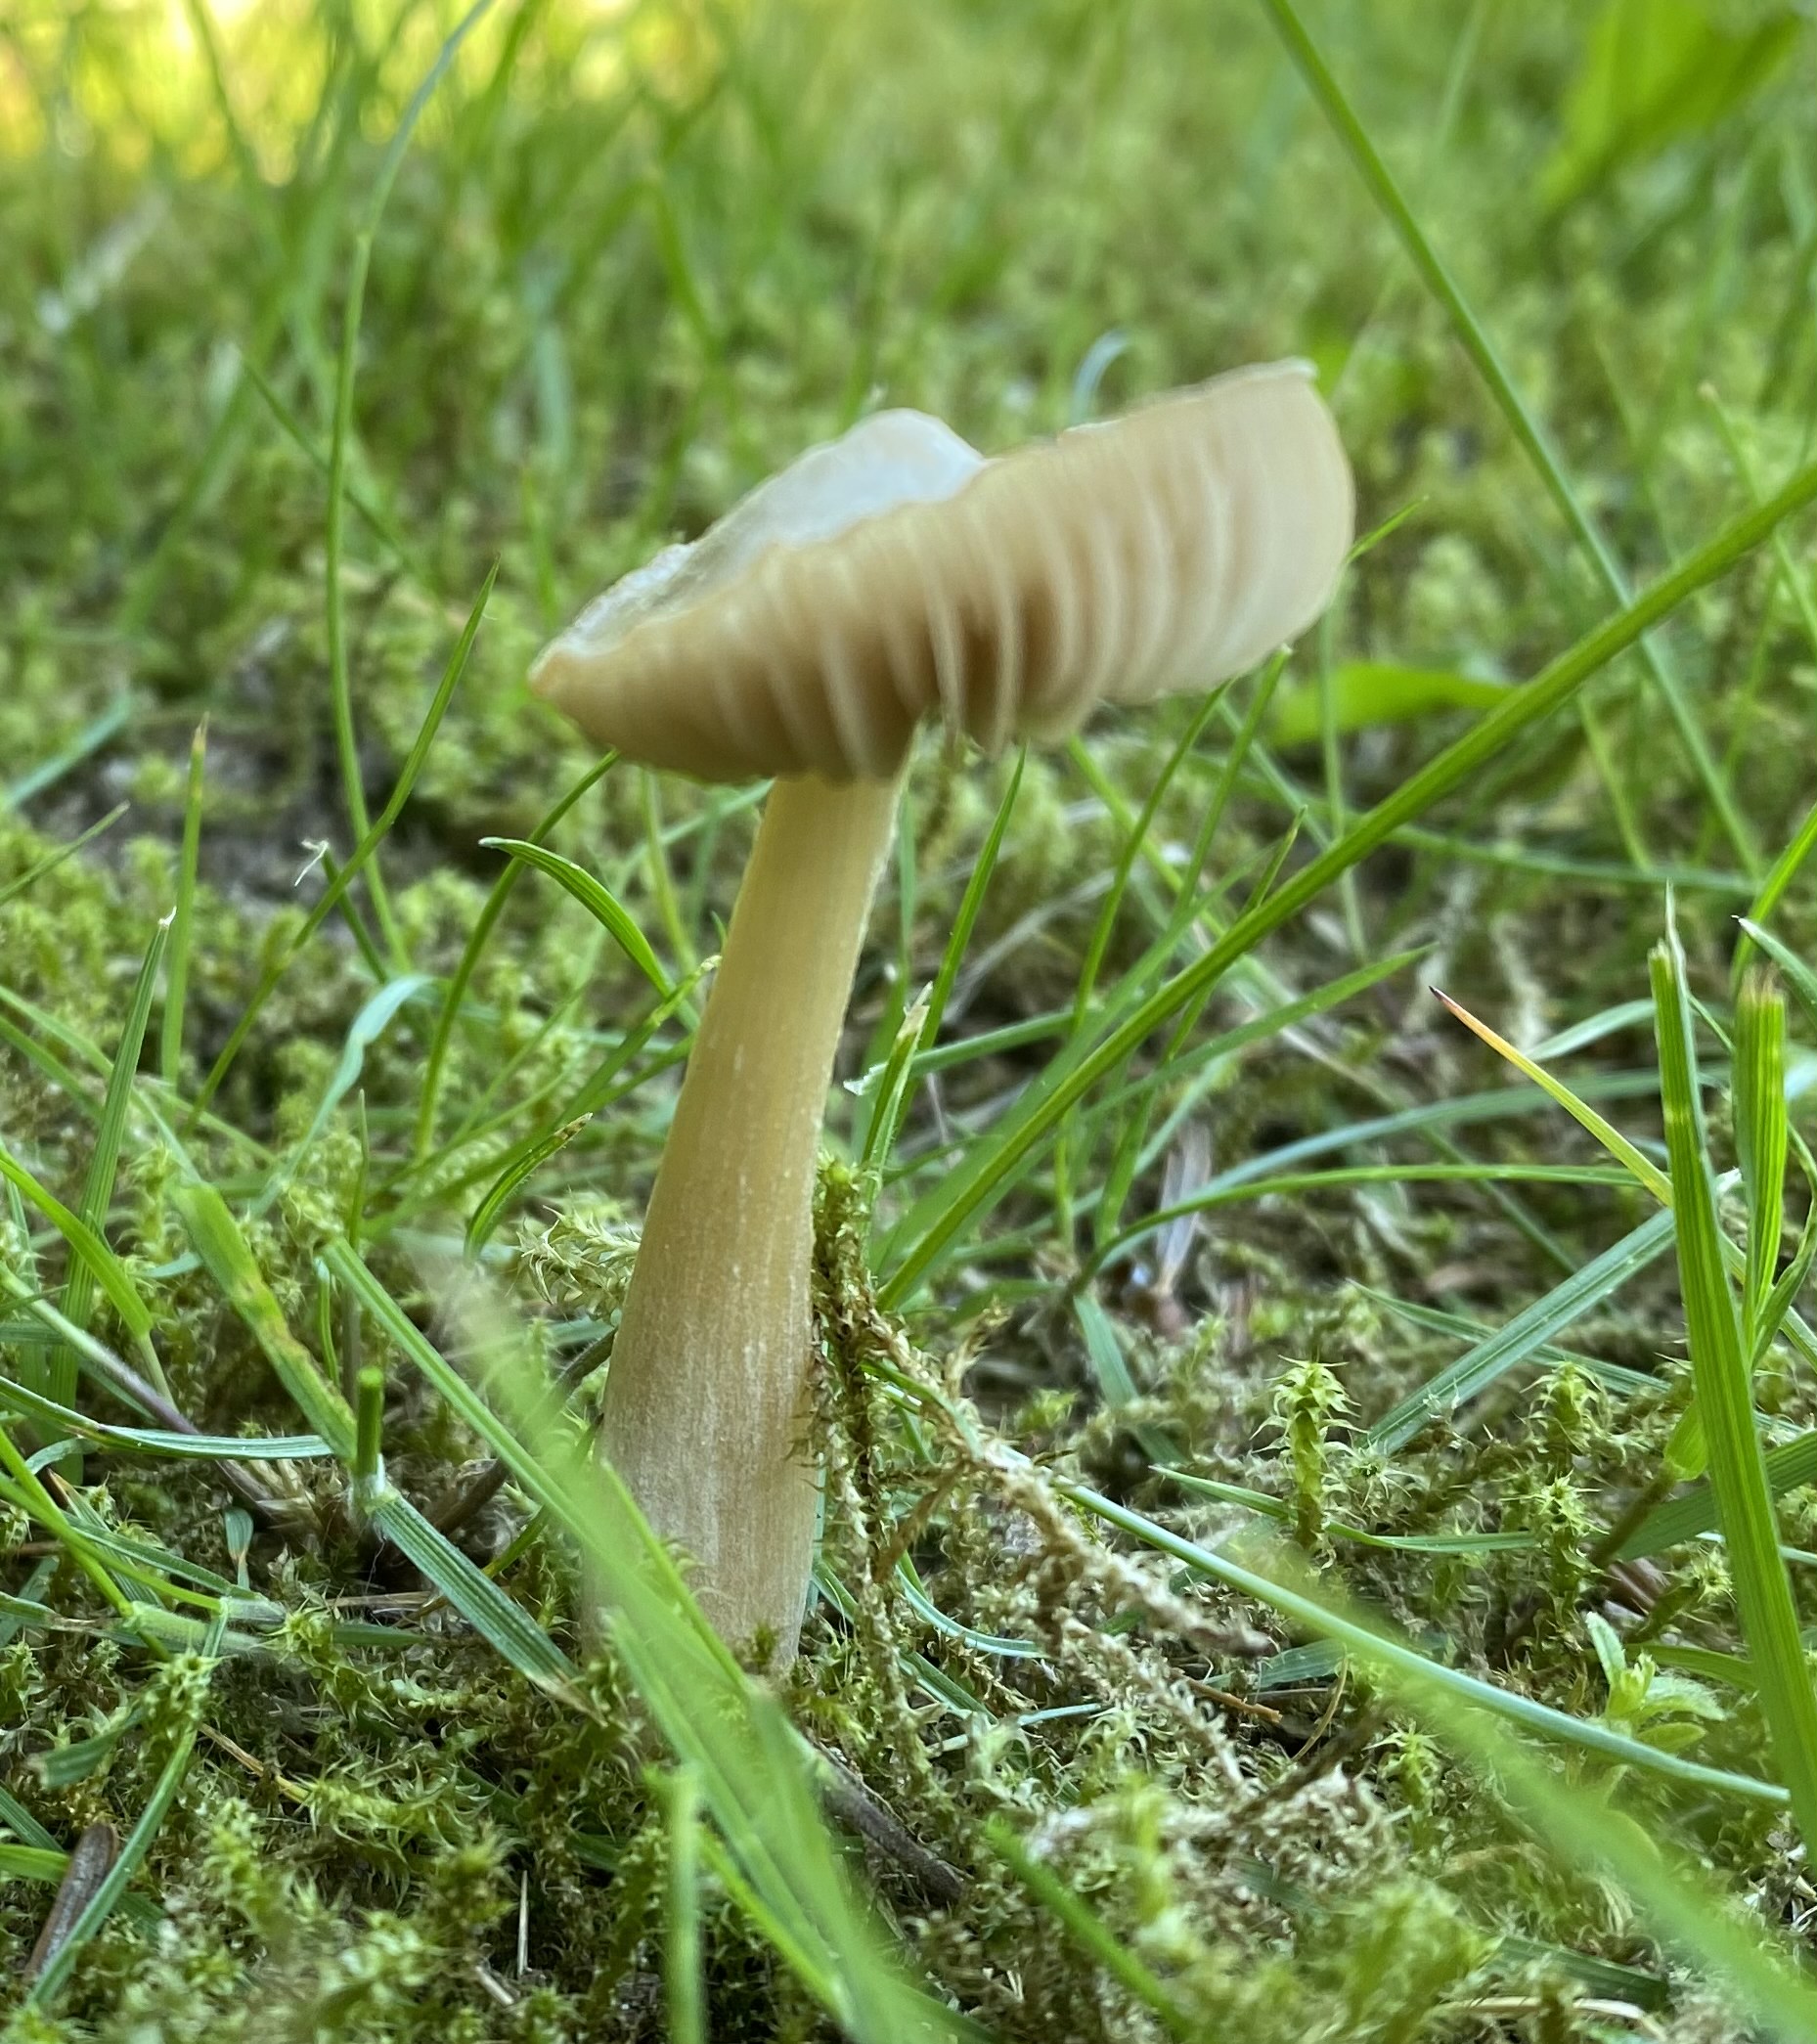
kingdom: Fungi
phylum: Basidiomycota
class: Agaricomycetes
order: Agaricales
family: Entolomataceae
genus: Entoloma
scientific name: Entoloma cuneatum
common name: dunstokket rødblad
